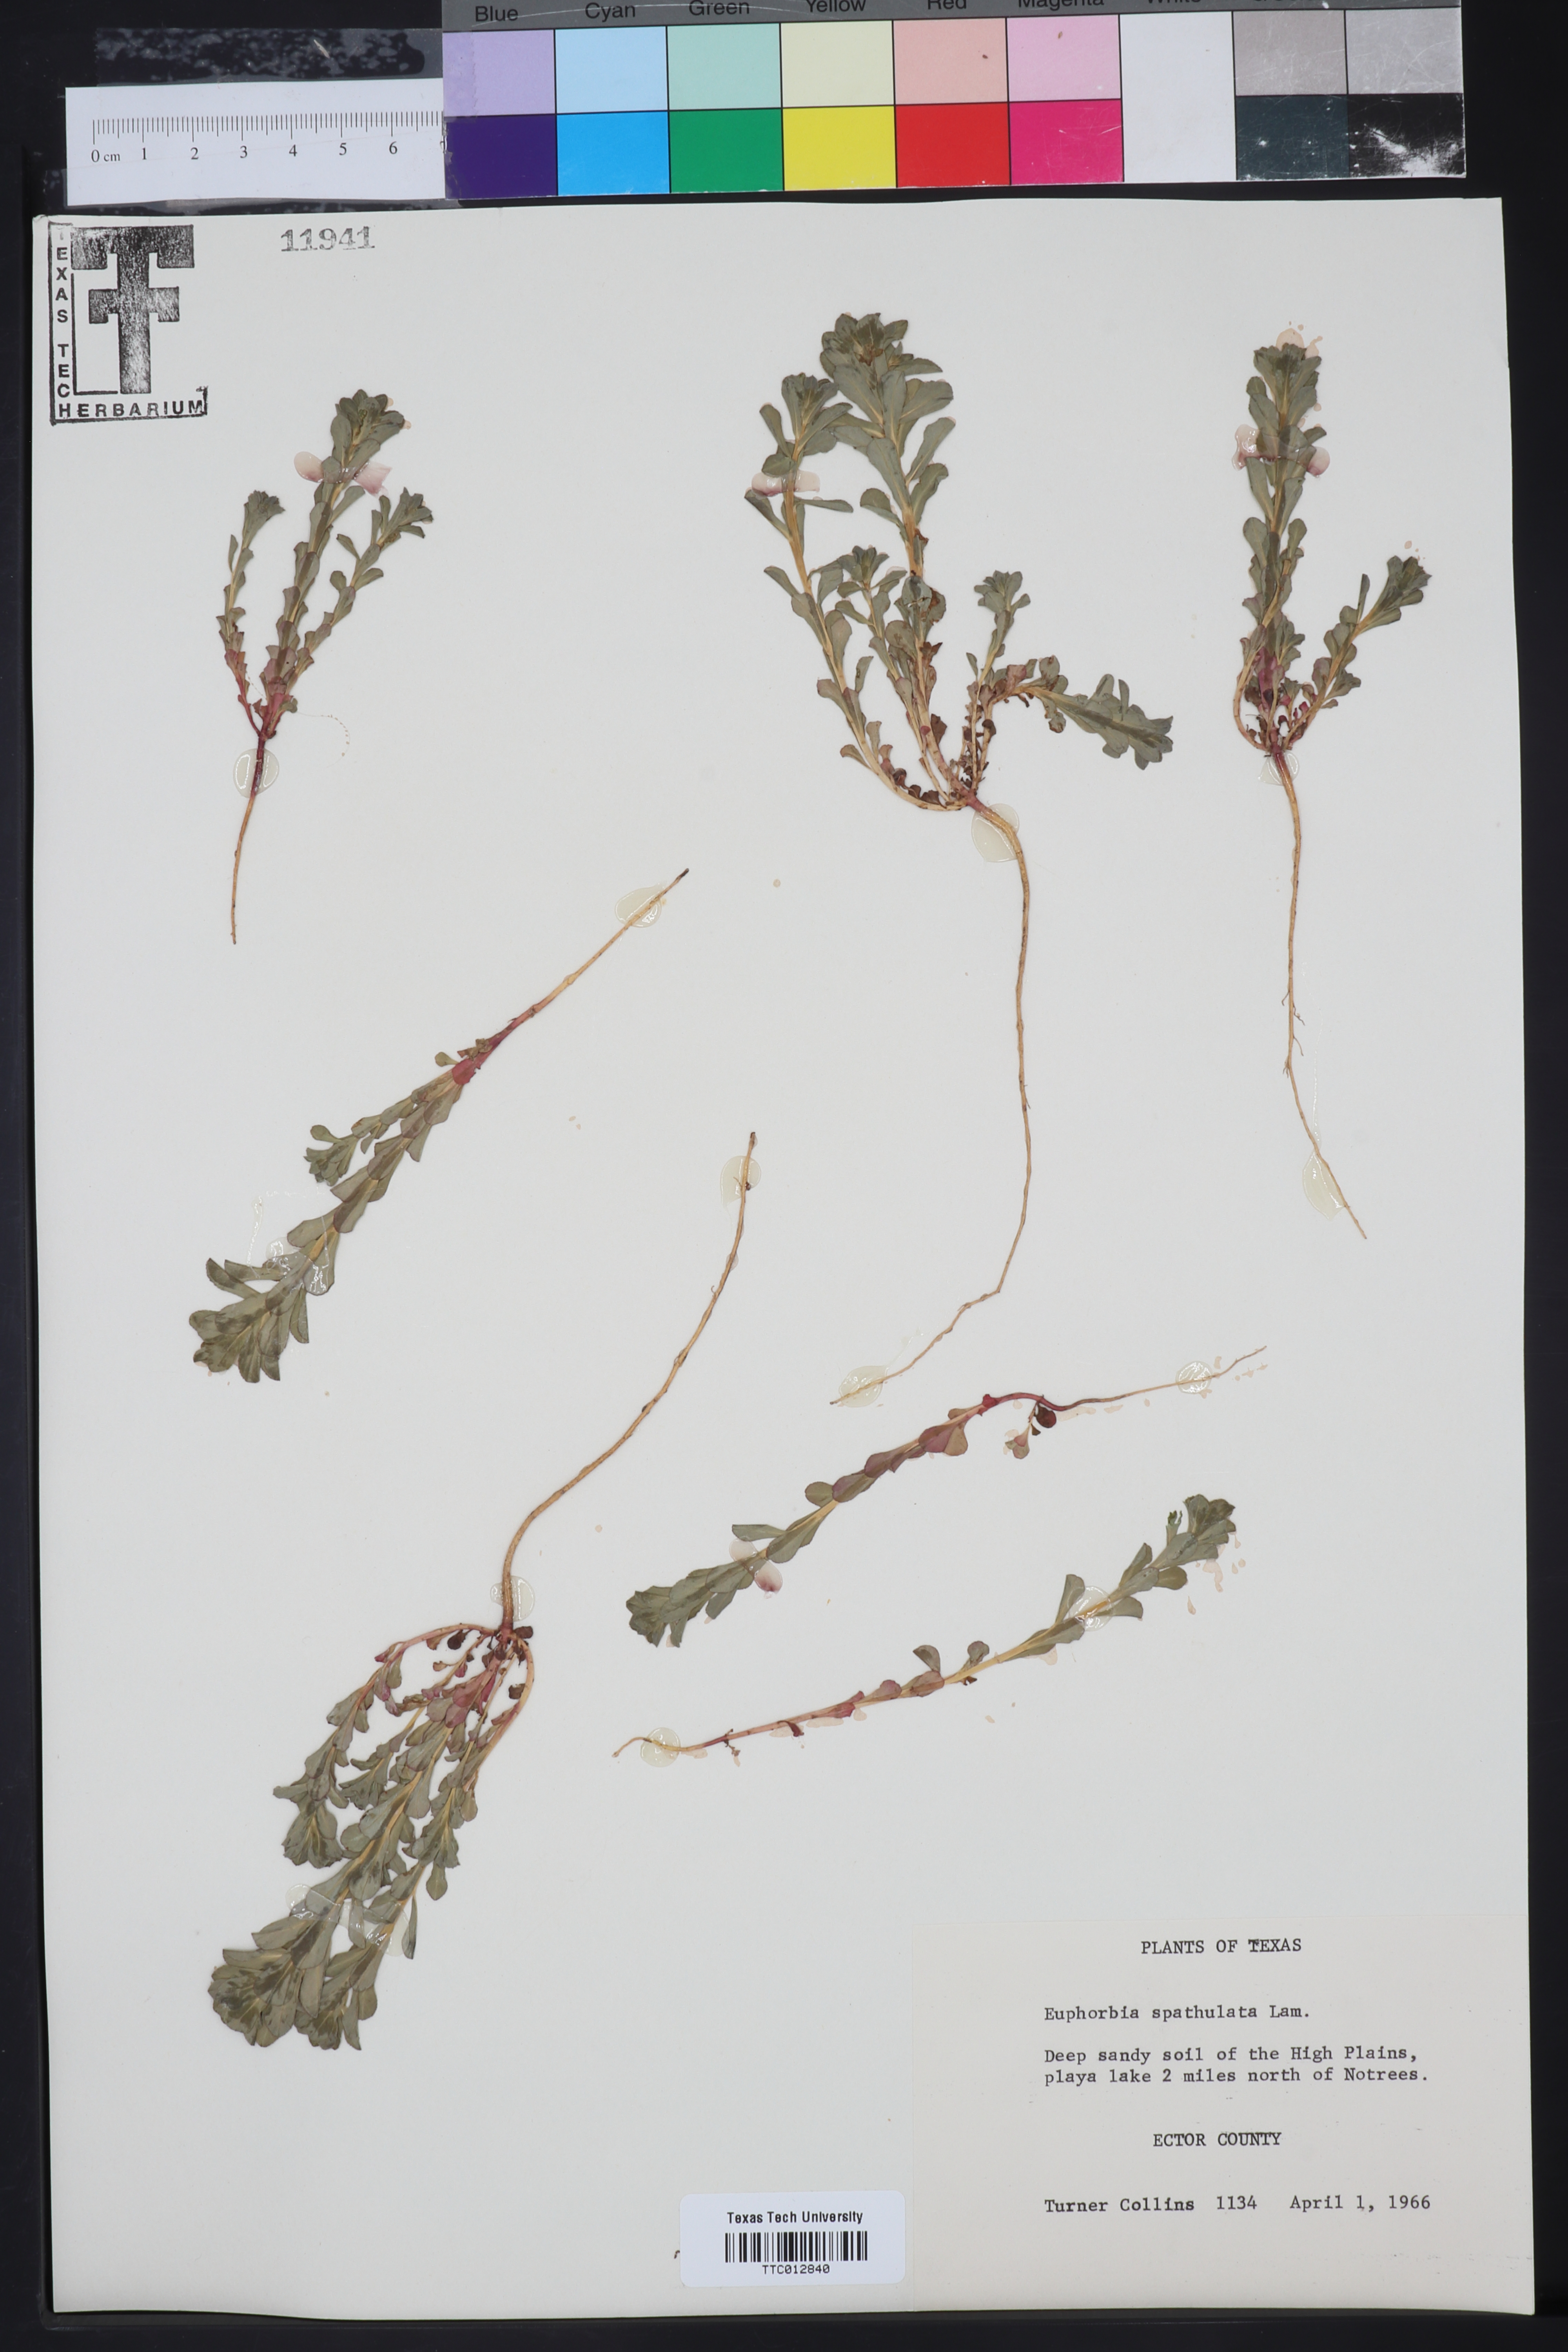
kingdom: Plantae
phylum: Tracheophyta
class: Magnoliopsida
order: Malpighiales
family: Euphorbiaceae
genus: Euphorbia
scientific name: Euphorbia spathulata
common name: Blunt spurge
